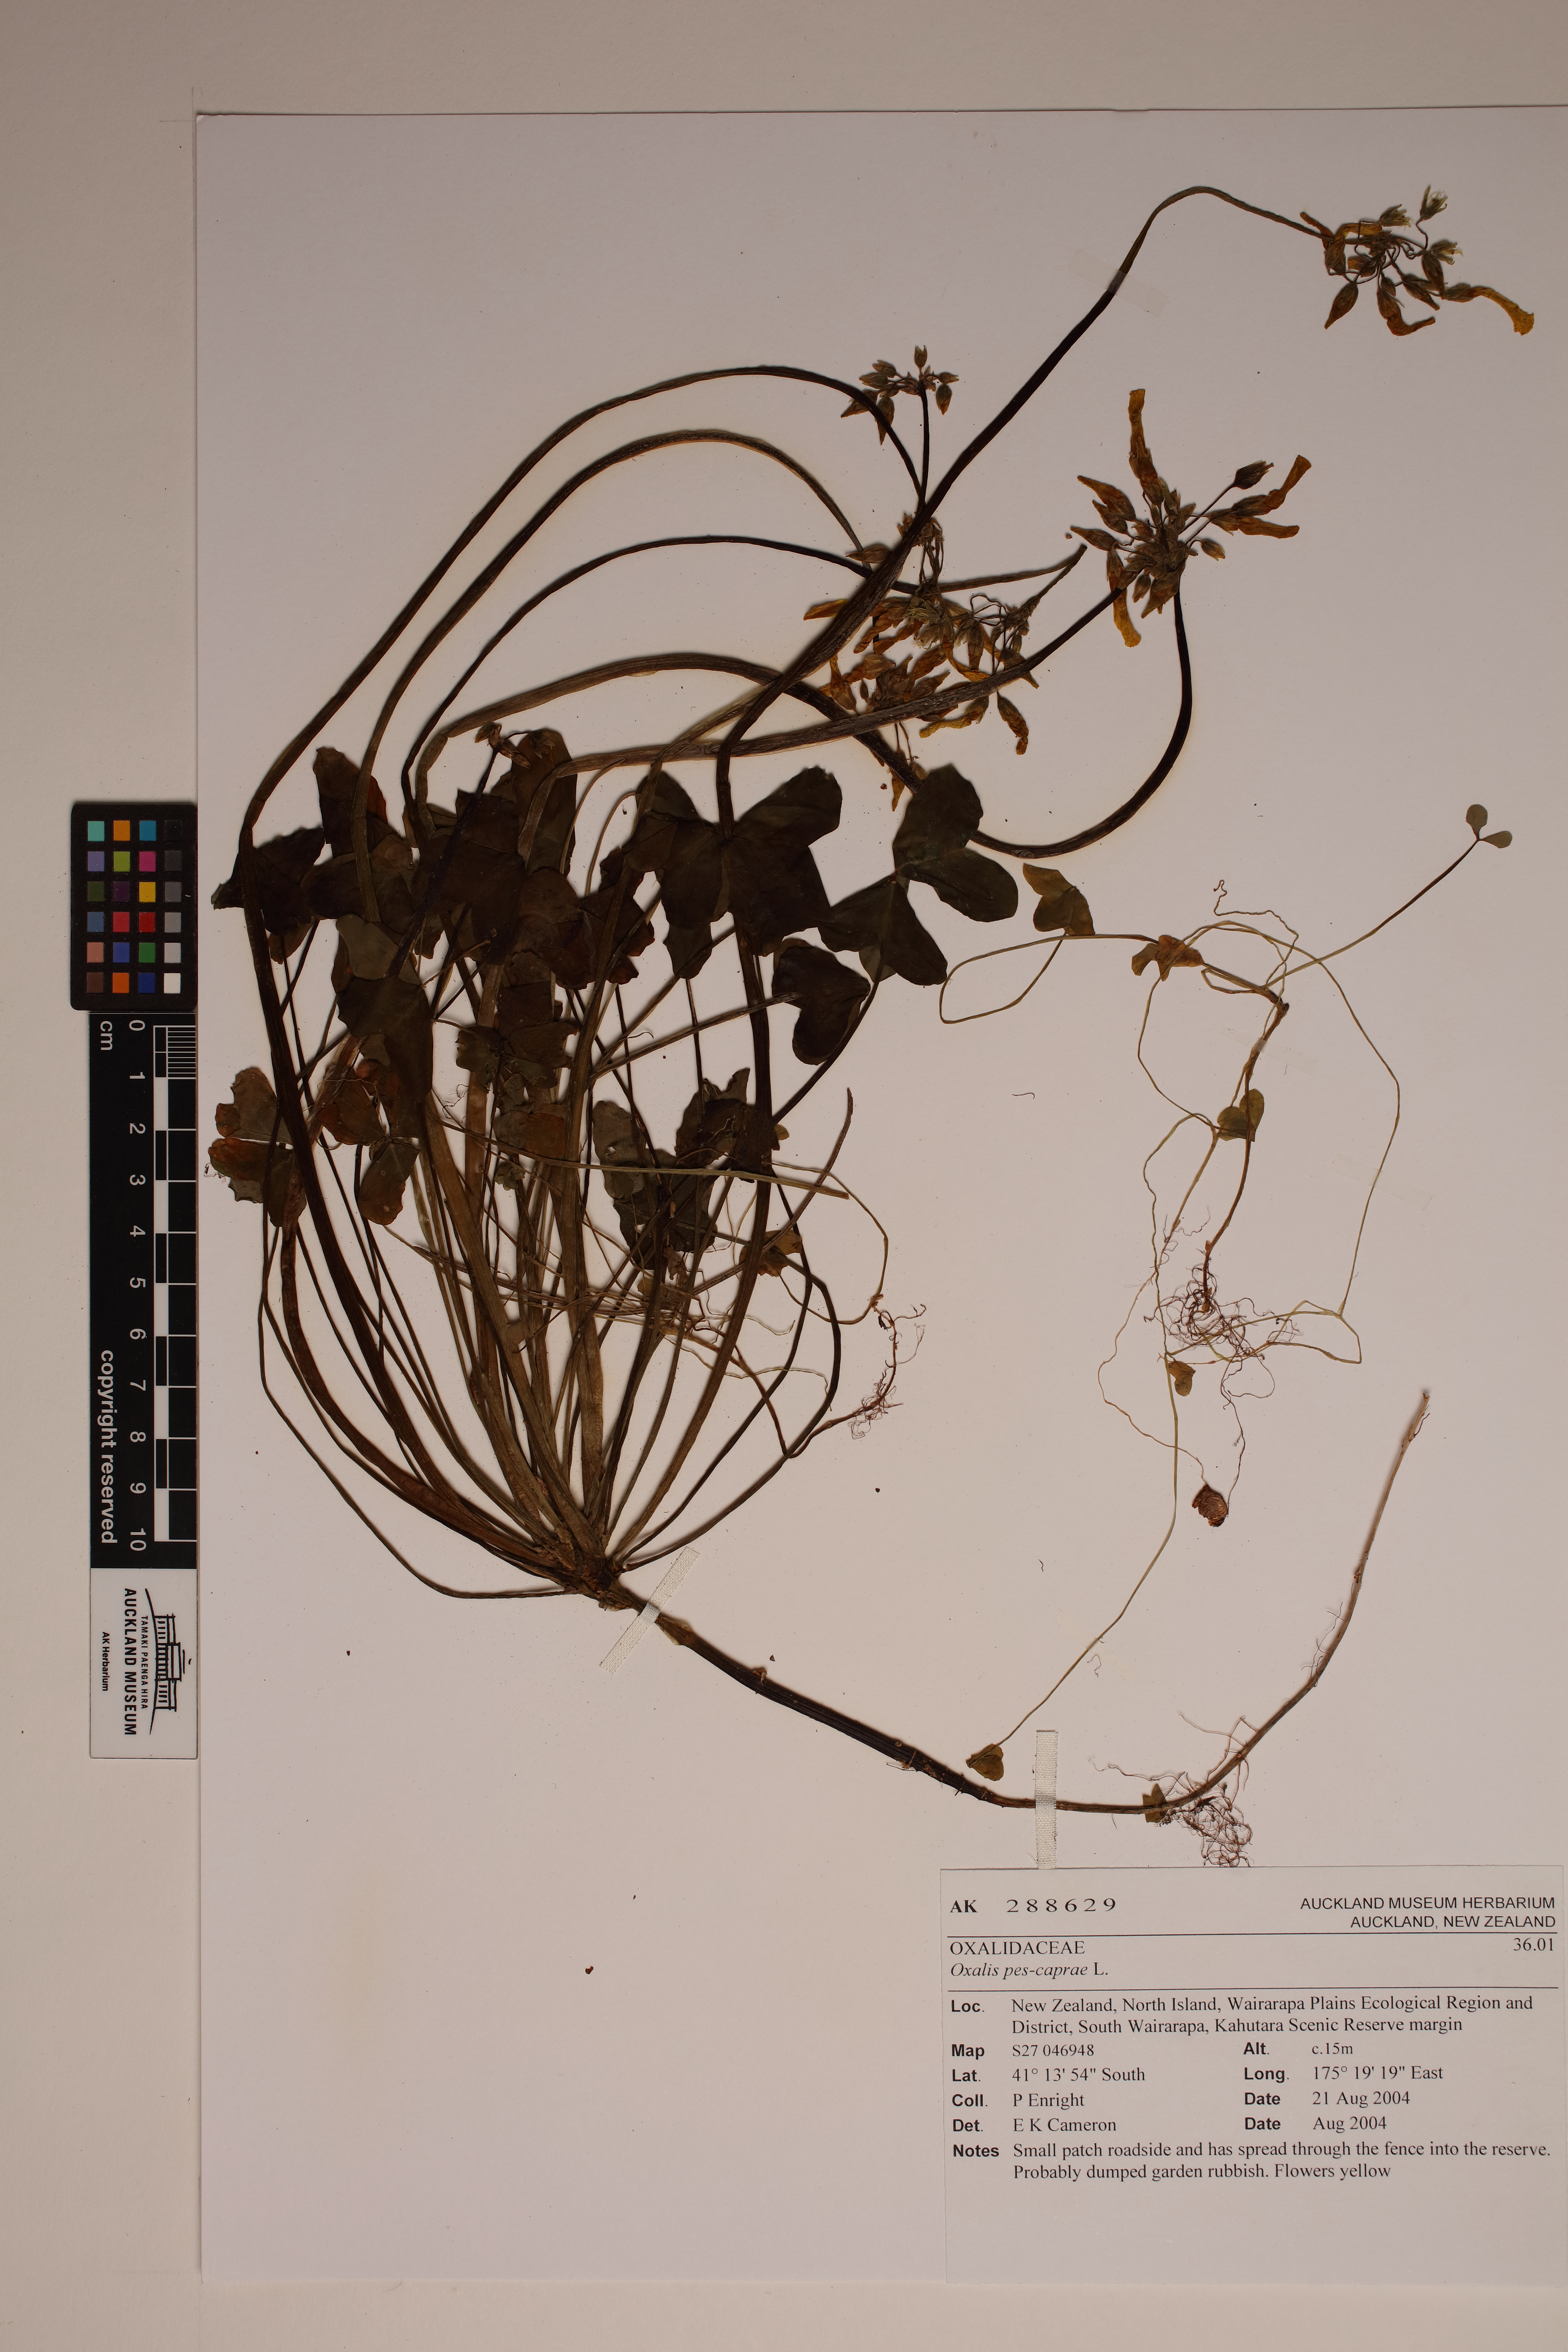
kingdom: Plantae
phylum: Tracheophyta
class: Magnoliopsida
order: Oxalidales
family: Oxalidaceae
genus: Oxalis
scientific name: Oxalis pes-caprae
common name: Bermuda-buttercup
